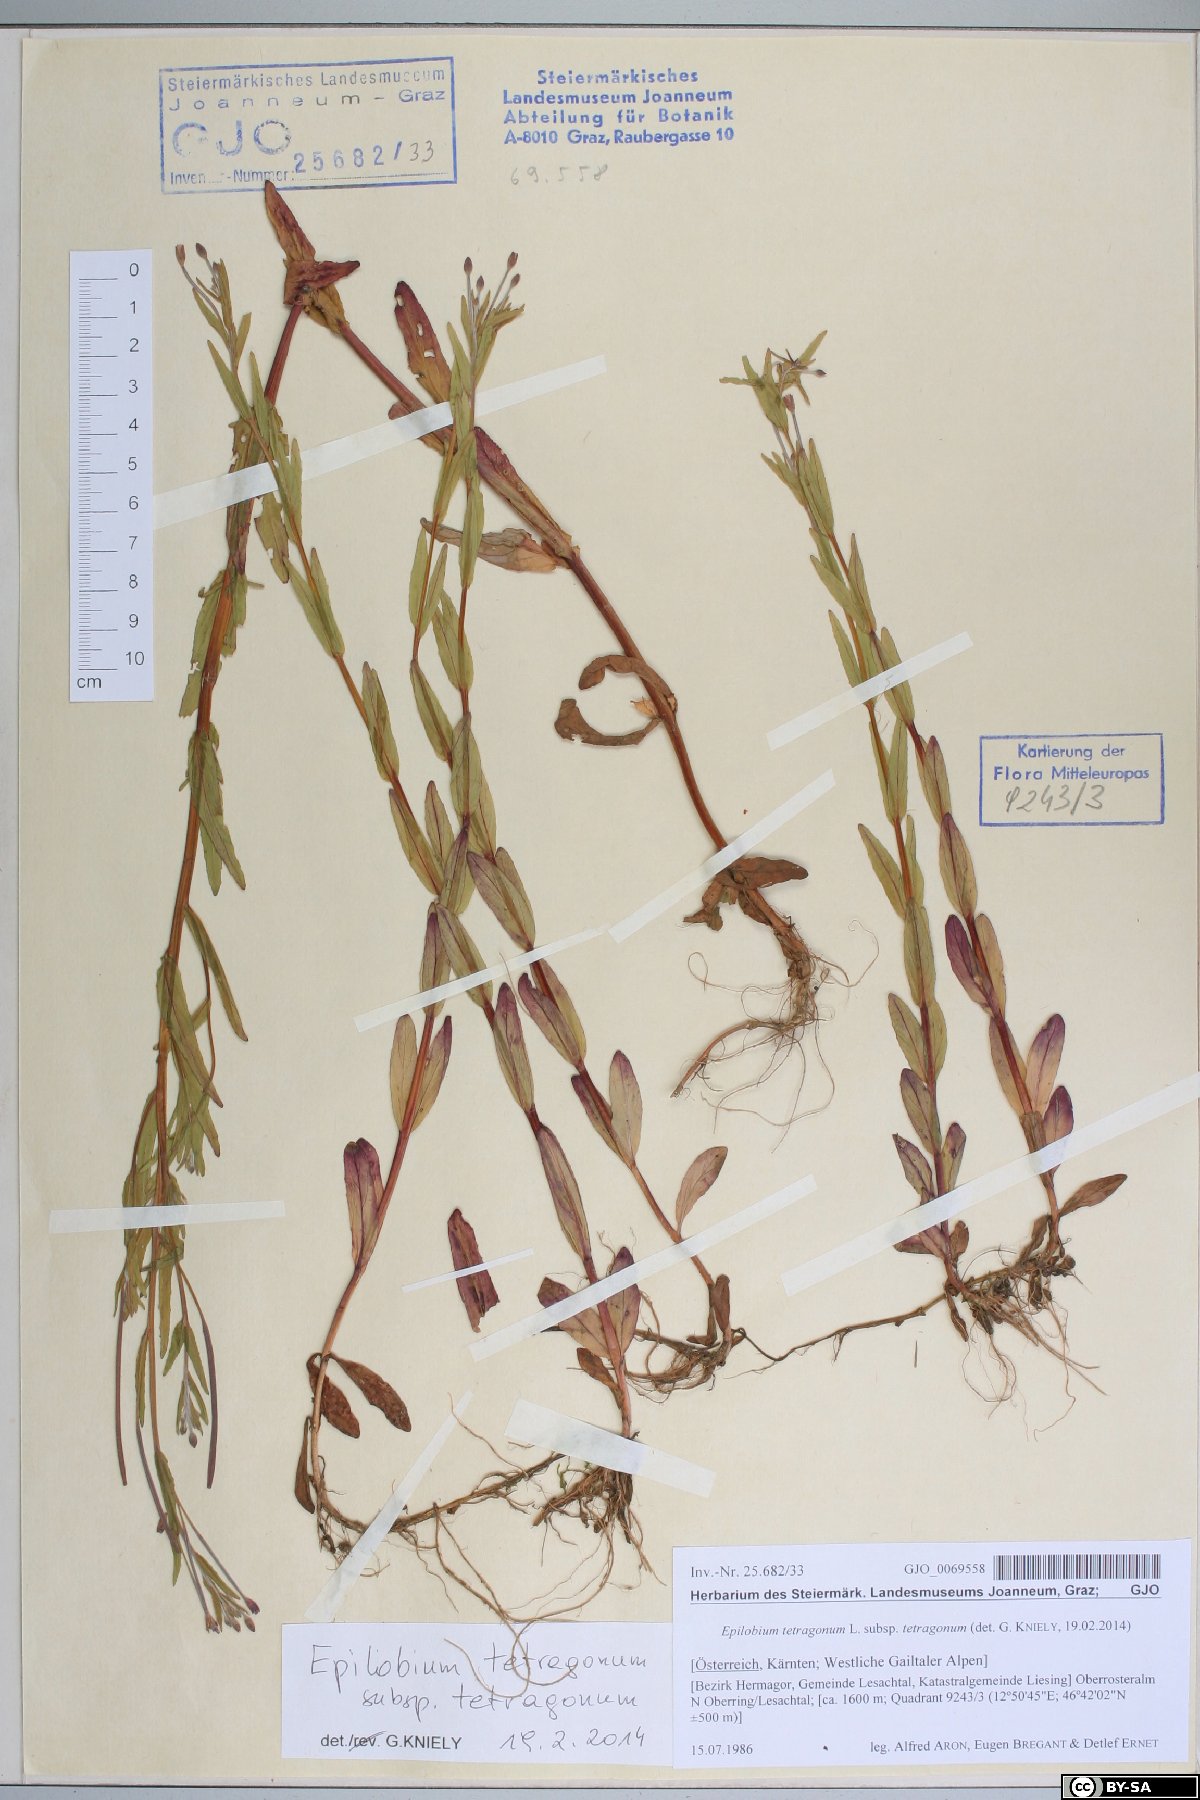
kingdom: Plantae
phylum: Tracheophyta
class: Magnoliopsida
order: Myrtales
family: Onagraceae
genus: Epilobium
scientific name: Epilobium obscurum
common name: Short-fruited willowherb
